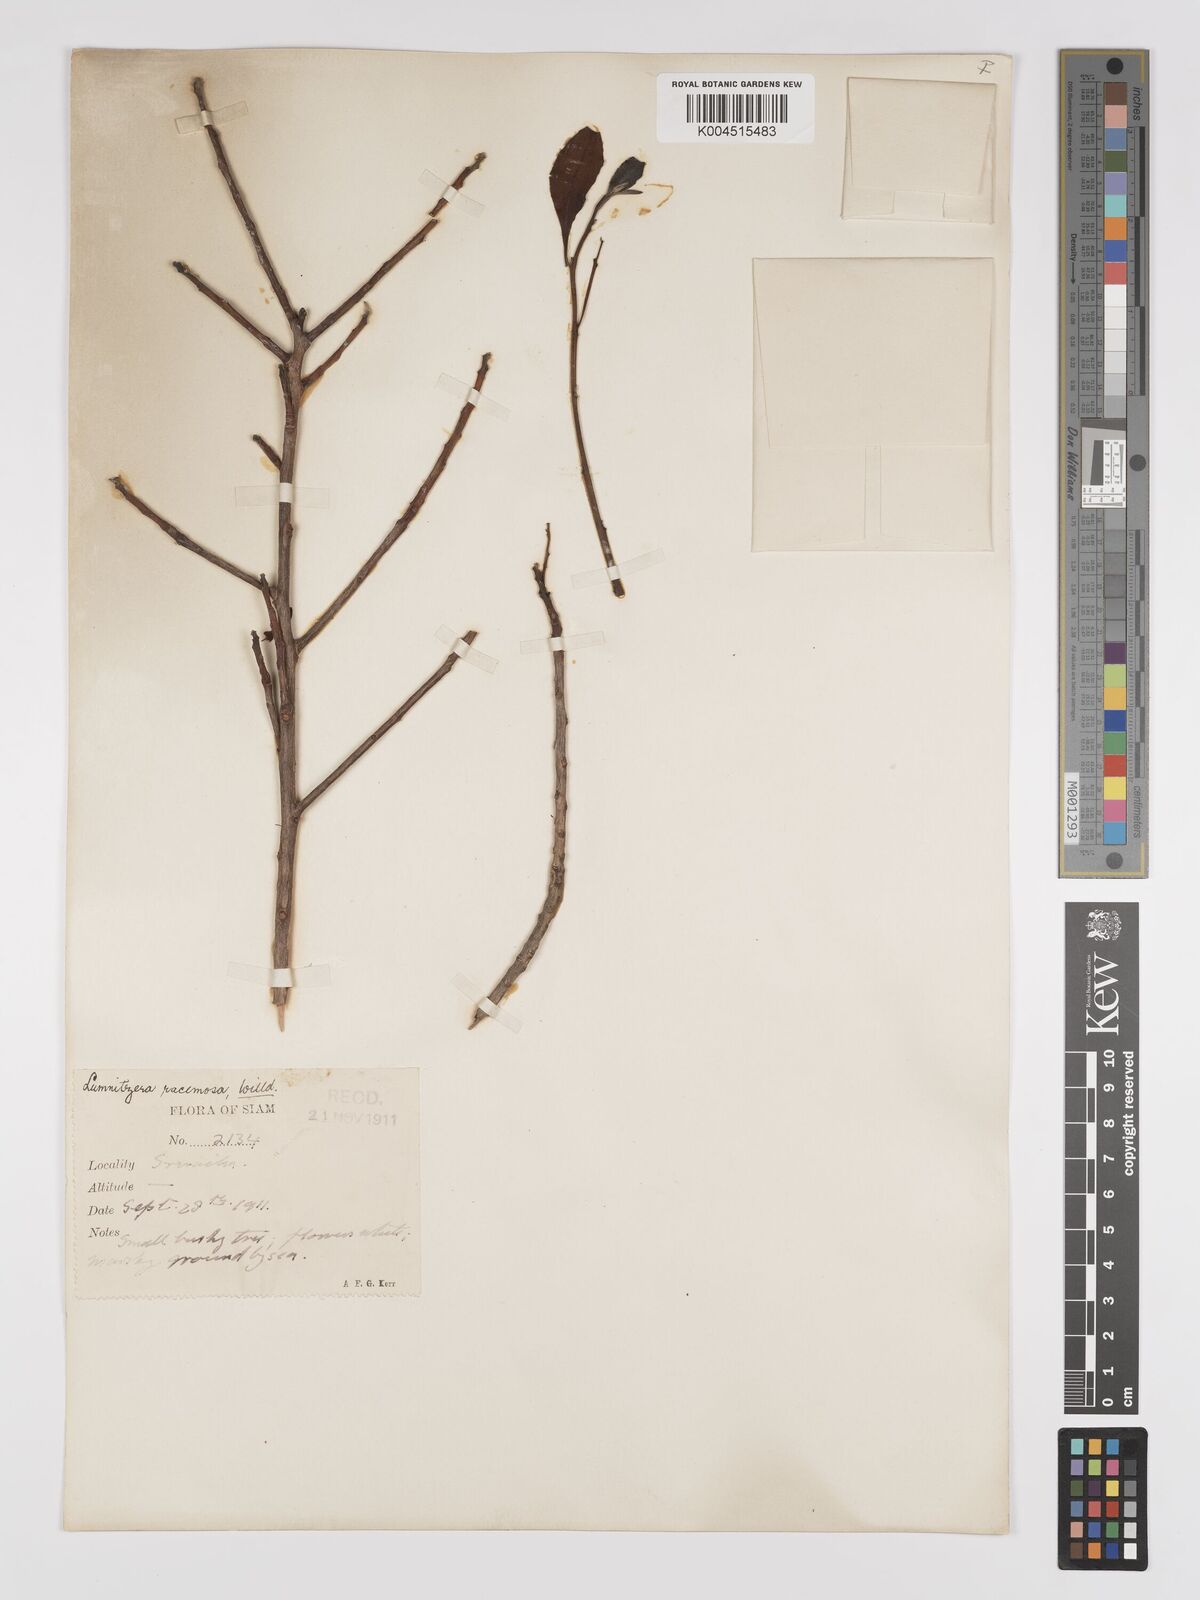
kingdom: Plantae
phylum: Tracheophyta
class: Magnoliopsida
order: Myrtales
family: Combretaceae
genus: Lumnitzera
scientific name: Lumnitzera racemosa
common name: White-flowered black mangrove
